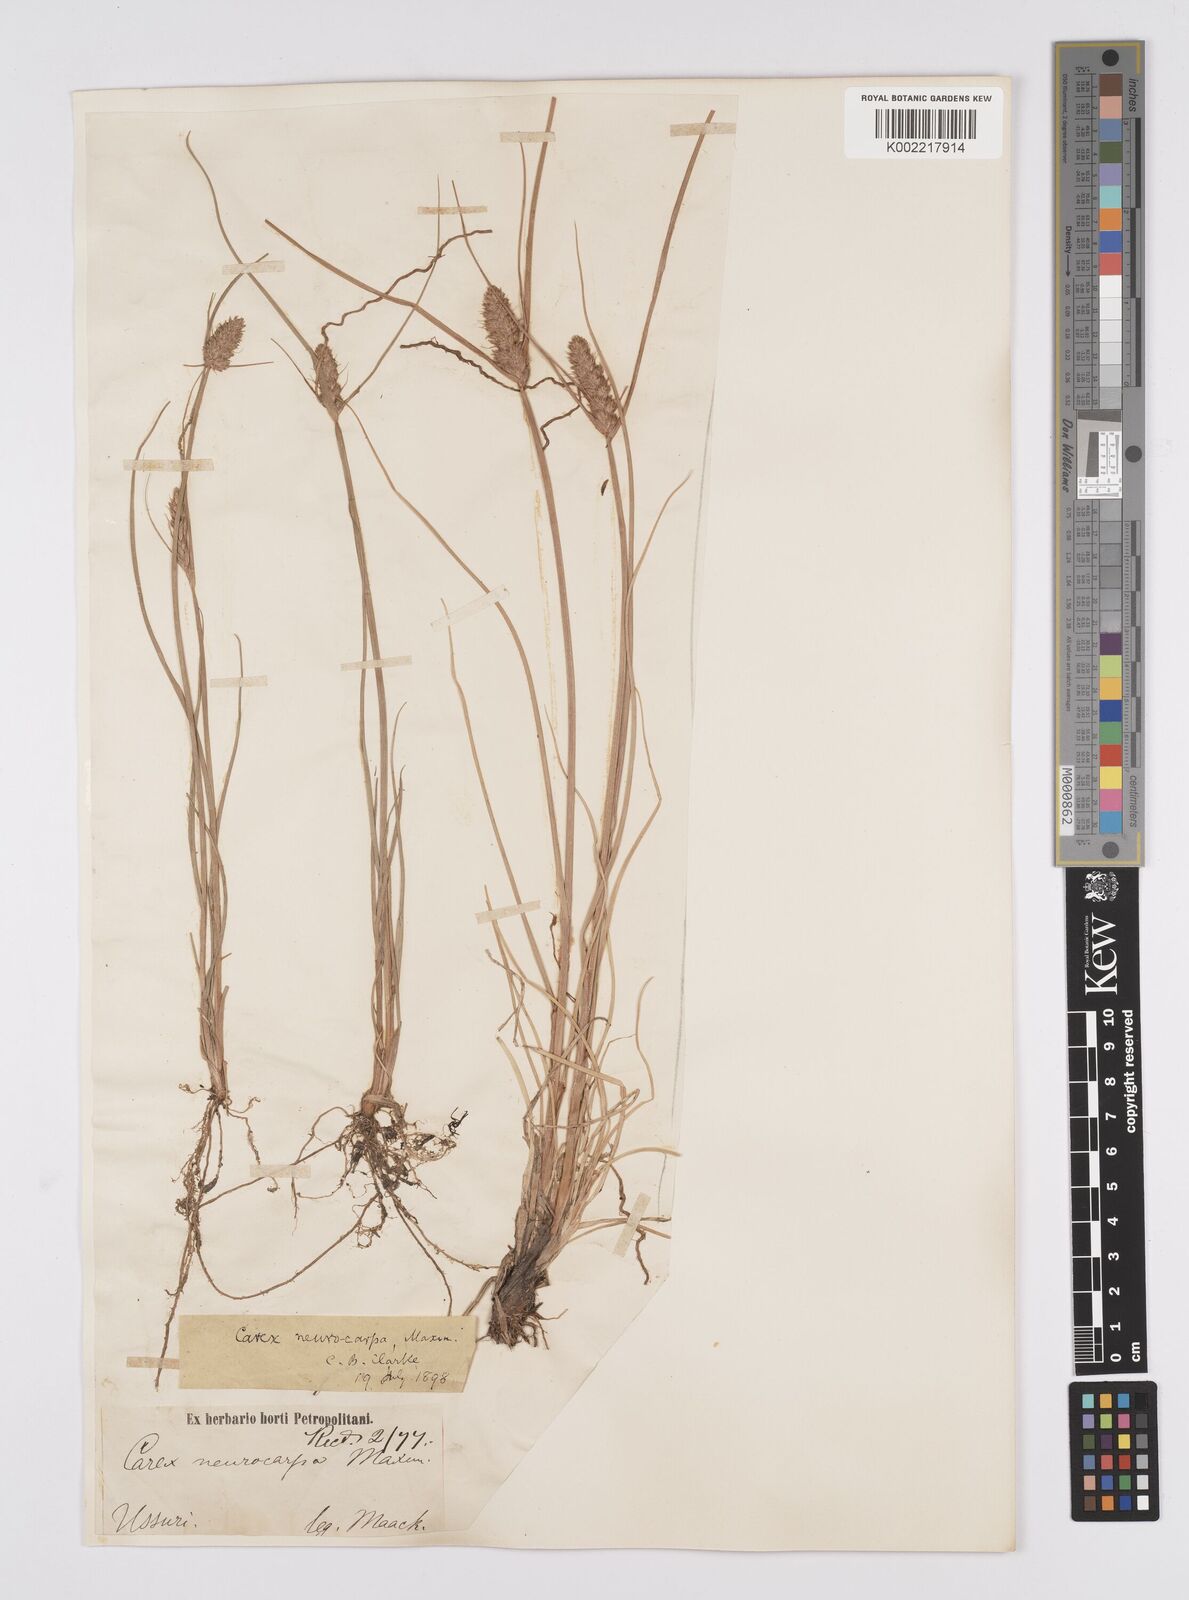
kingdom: Plantae
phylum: Tracheophyta
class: Liliopsida
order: Poales
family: Cyperaceae
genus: Carex
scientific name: Carex neurocarpa
